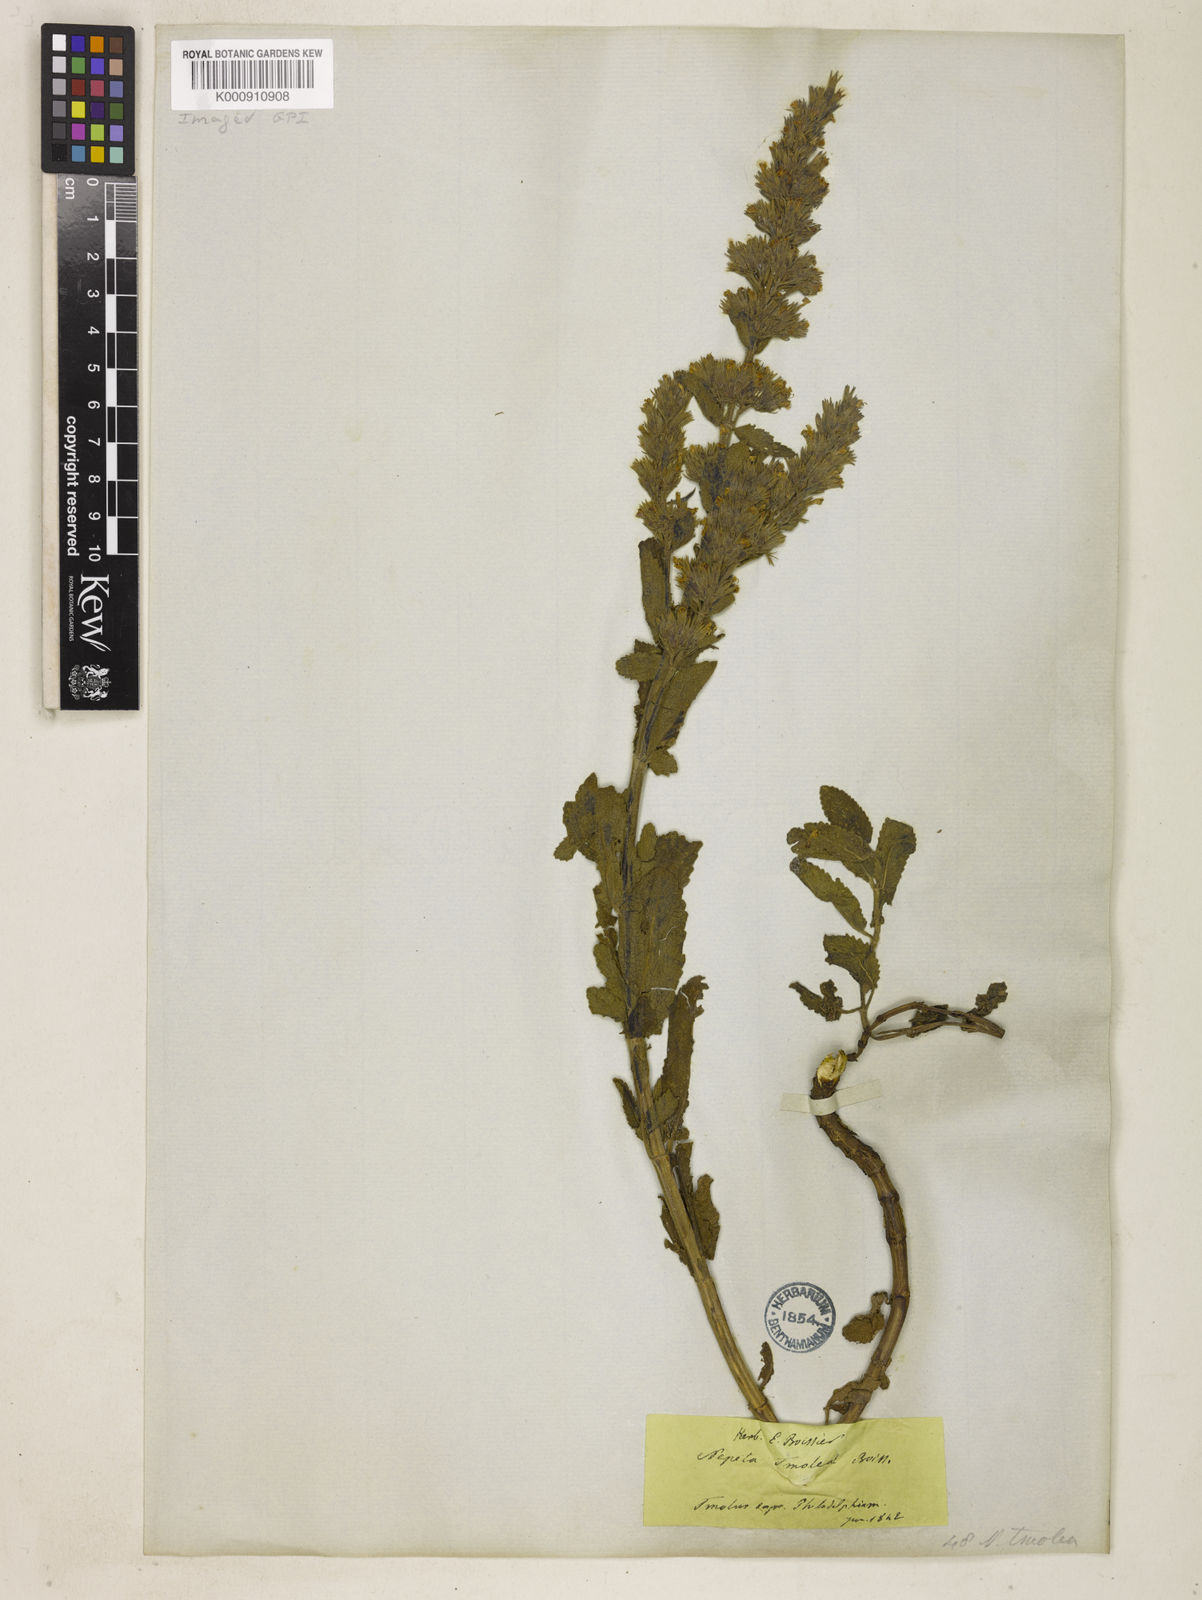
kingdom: Plantae
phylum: Tracheophyta
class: Magnoliopsida
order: Lamiales
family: Lamiaceae
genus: Nepeta
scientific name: Nepeta tmolea
